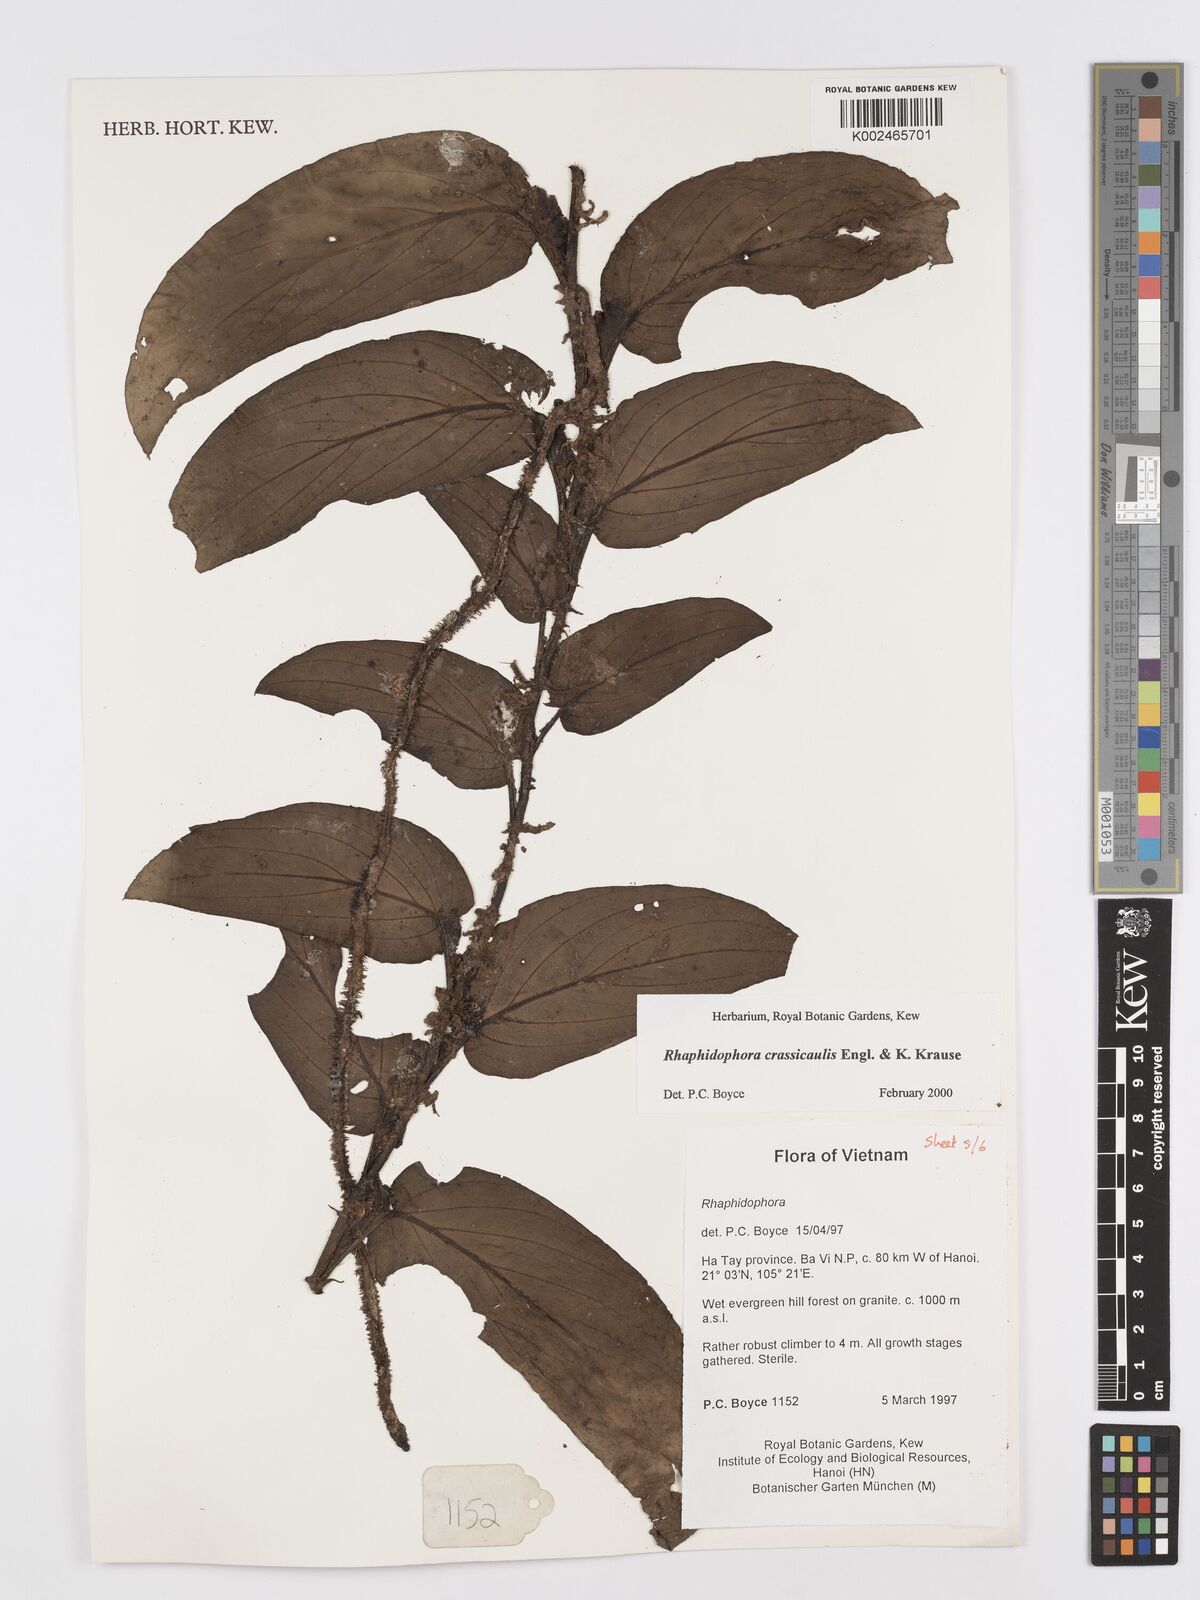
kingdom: Plantae
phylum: Tracheophyta
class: Liliopsida
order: Alismatales
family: Araceae
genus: Rhaphidophora
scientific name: Rhaphidophora crassicaulis
